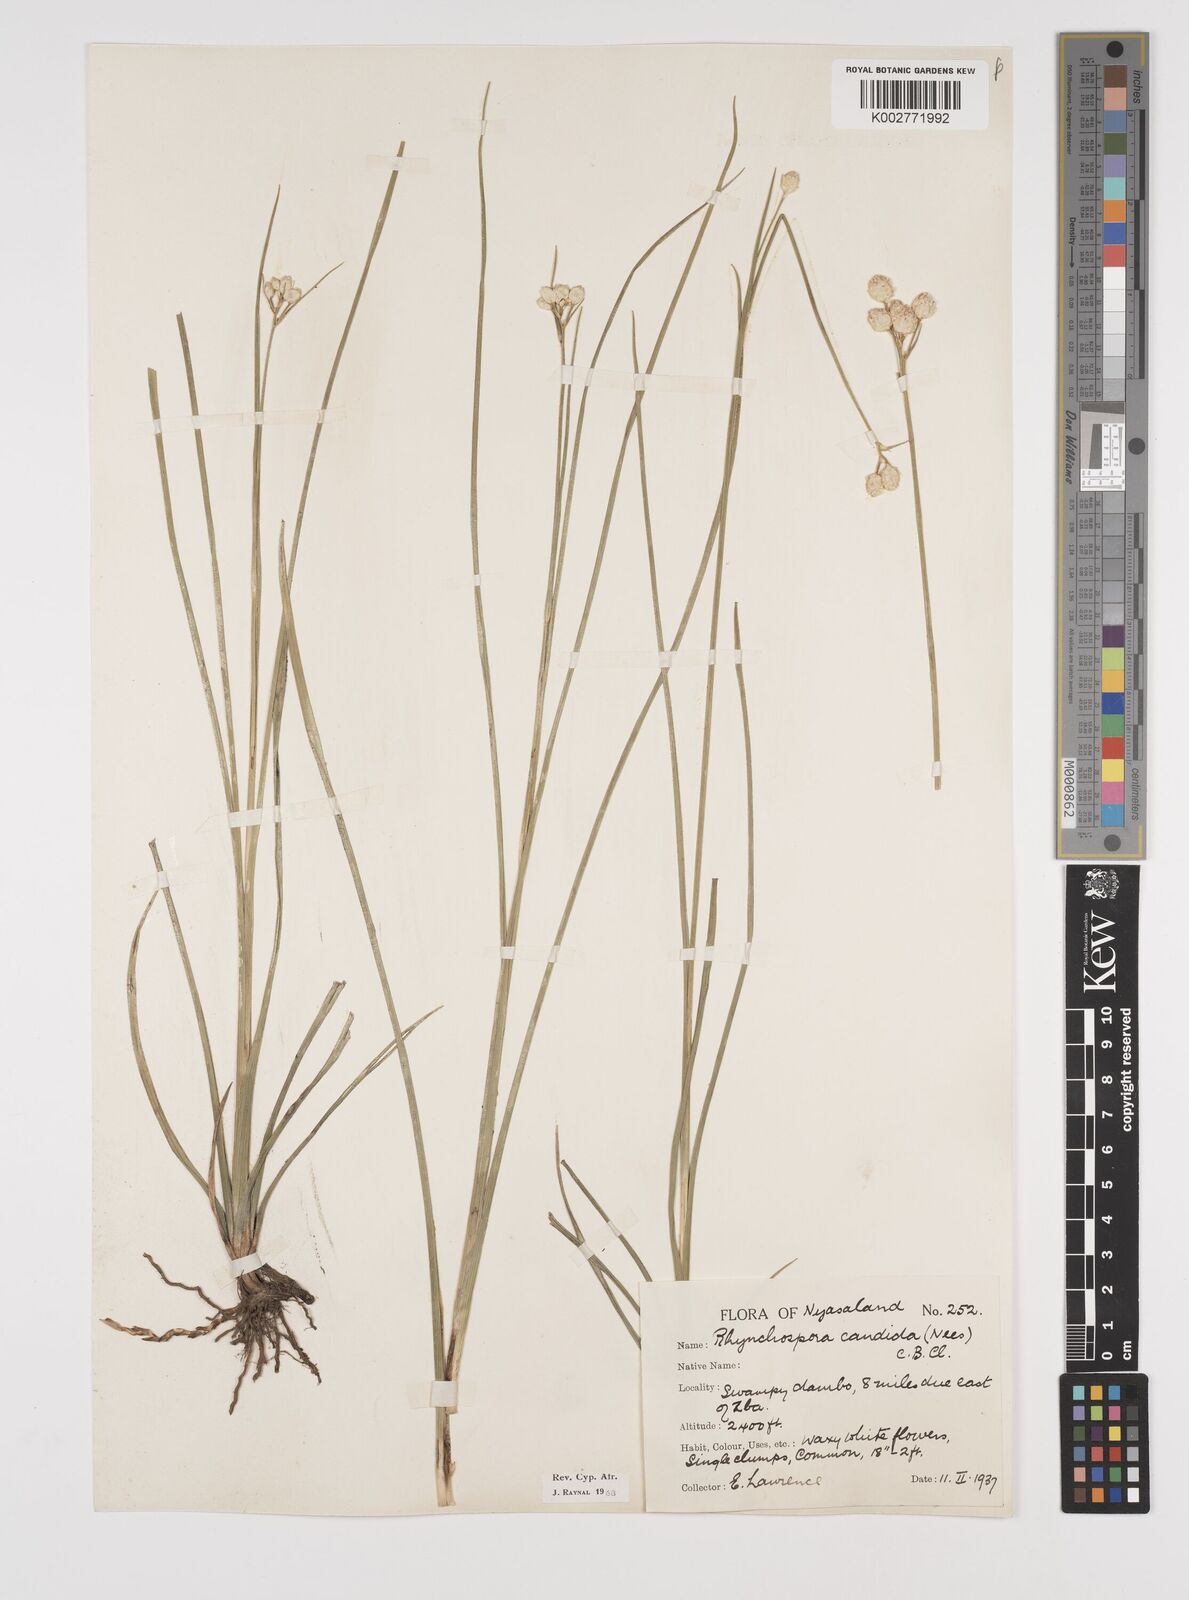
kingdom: Plantae
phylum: Tracheophyta
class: Liliopsida
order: Poales
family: Cyperaceae
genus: Rhynchospora
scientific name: Rhynchospora candida
